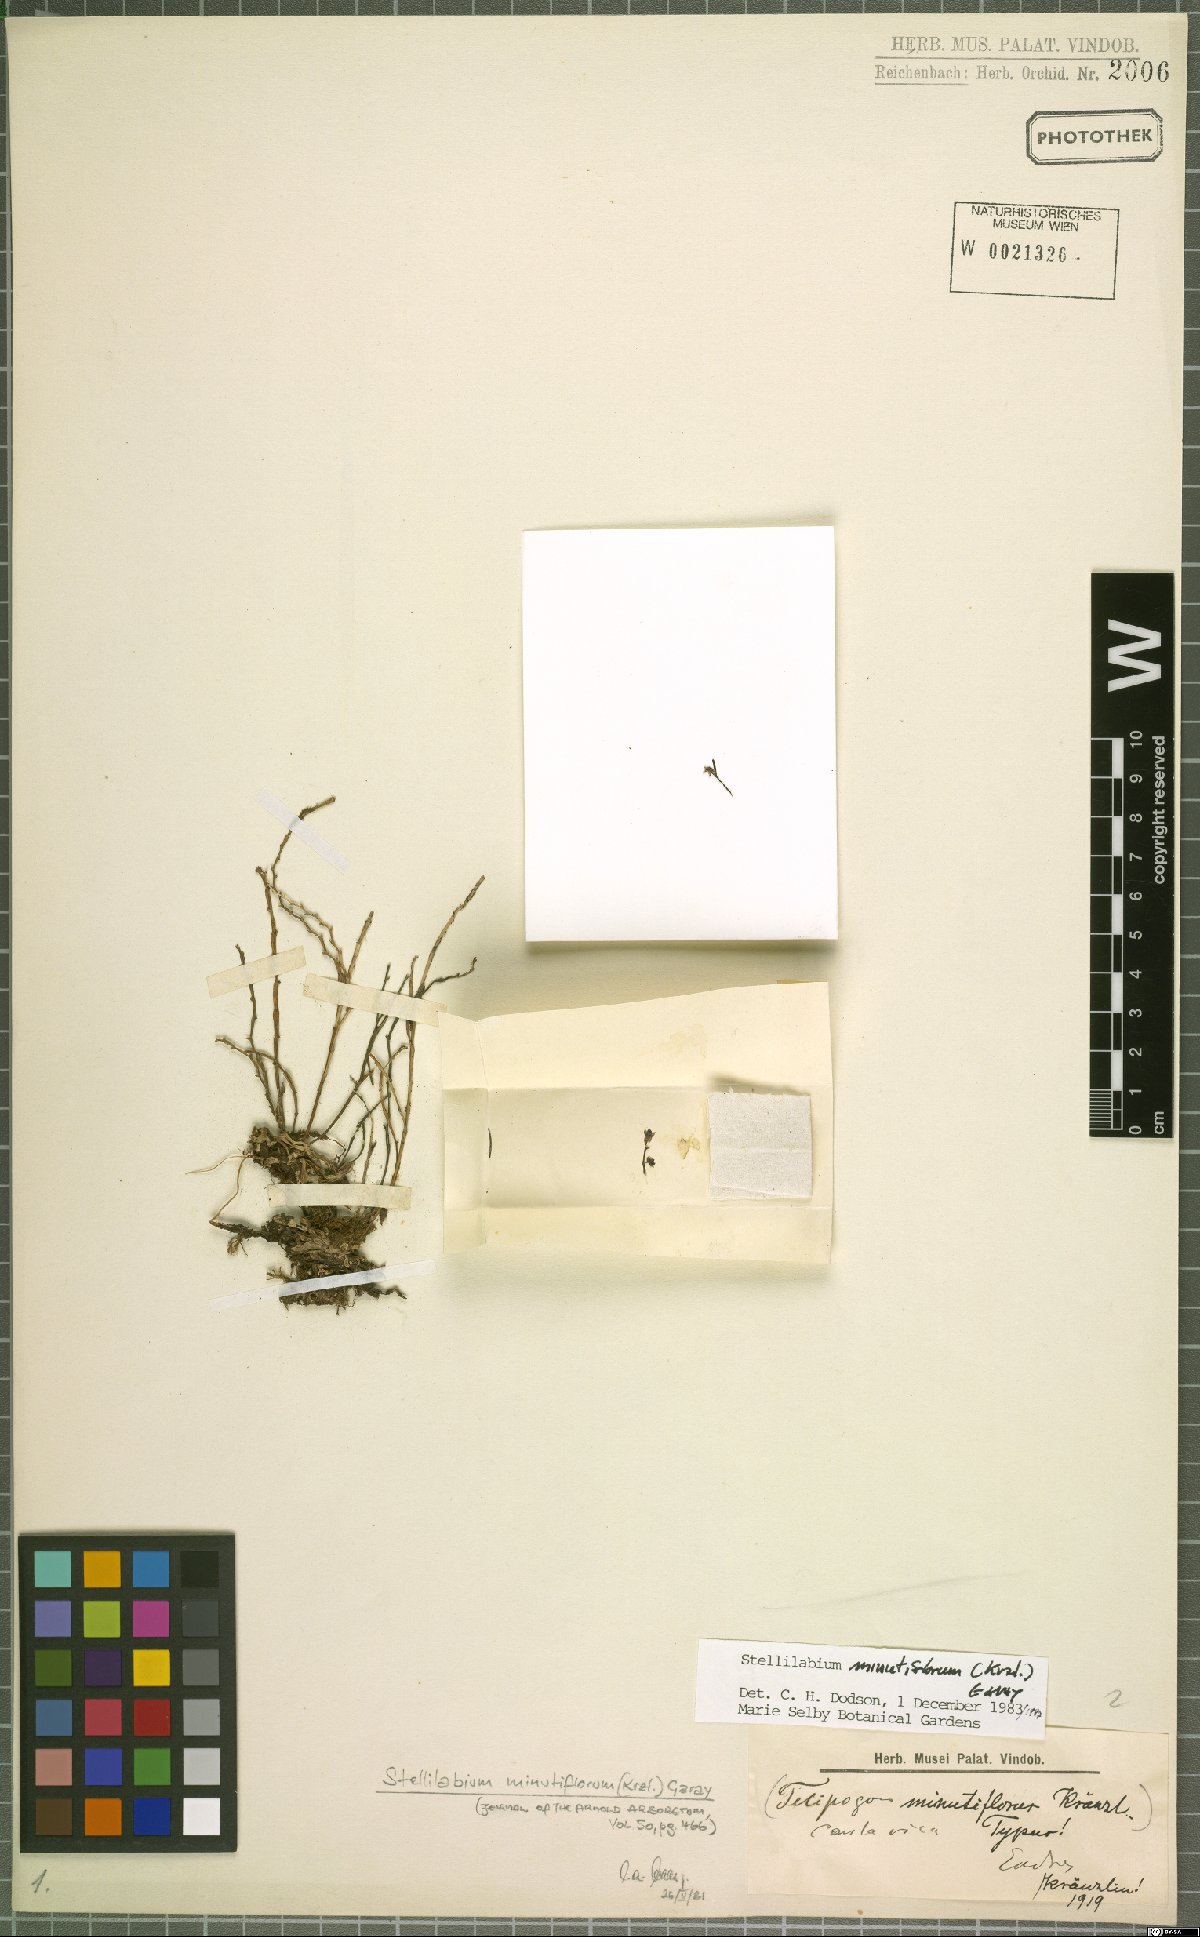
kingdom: Plantae
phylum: Tracheophyta
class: Liliopsida
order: Asparagales
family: Orchidaceae
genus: Telipogon
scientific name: Telipogon minutiflorus
